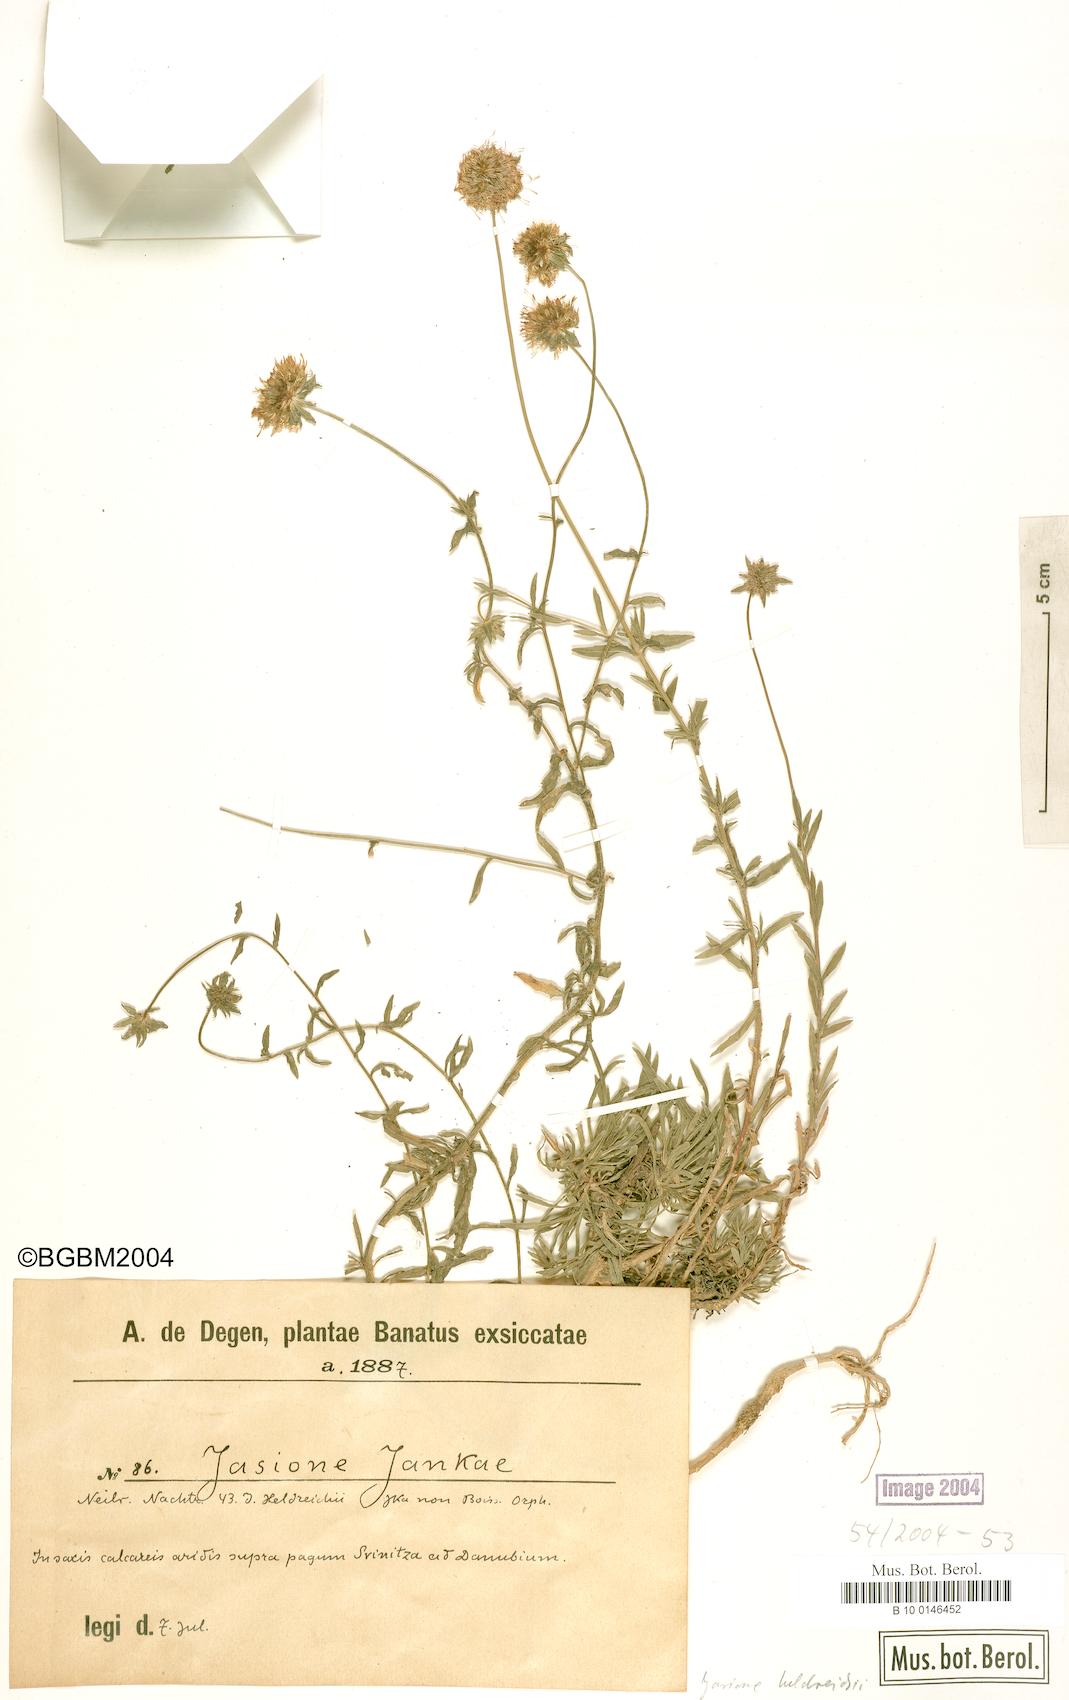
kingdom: Plantae
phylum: Tracheophyta
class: Magnoliopsida
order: Asterales
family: Campanulaceae
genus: Jasione
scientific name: Jasione heldreichii
